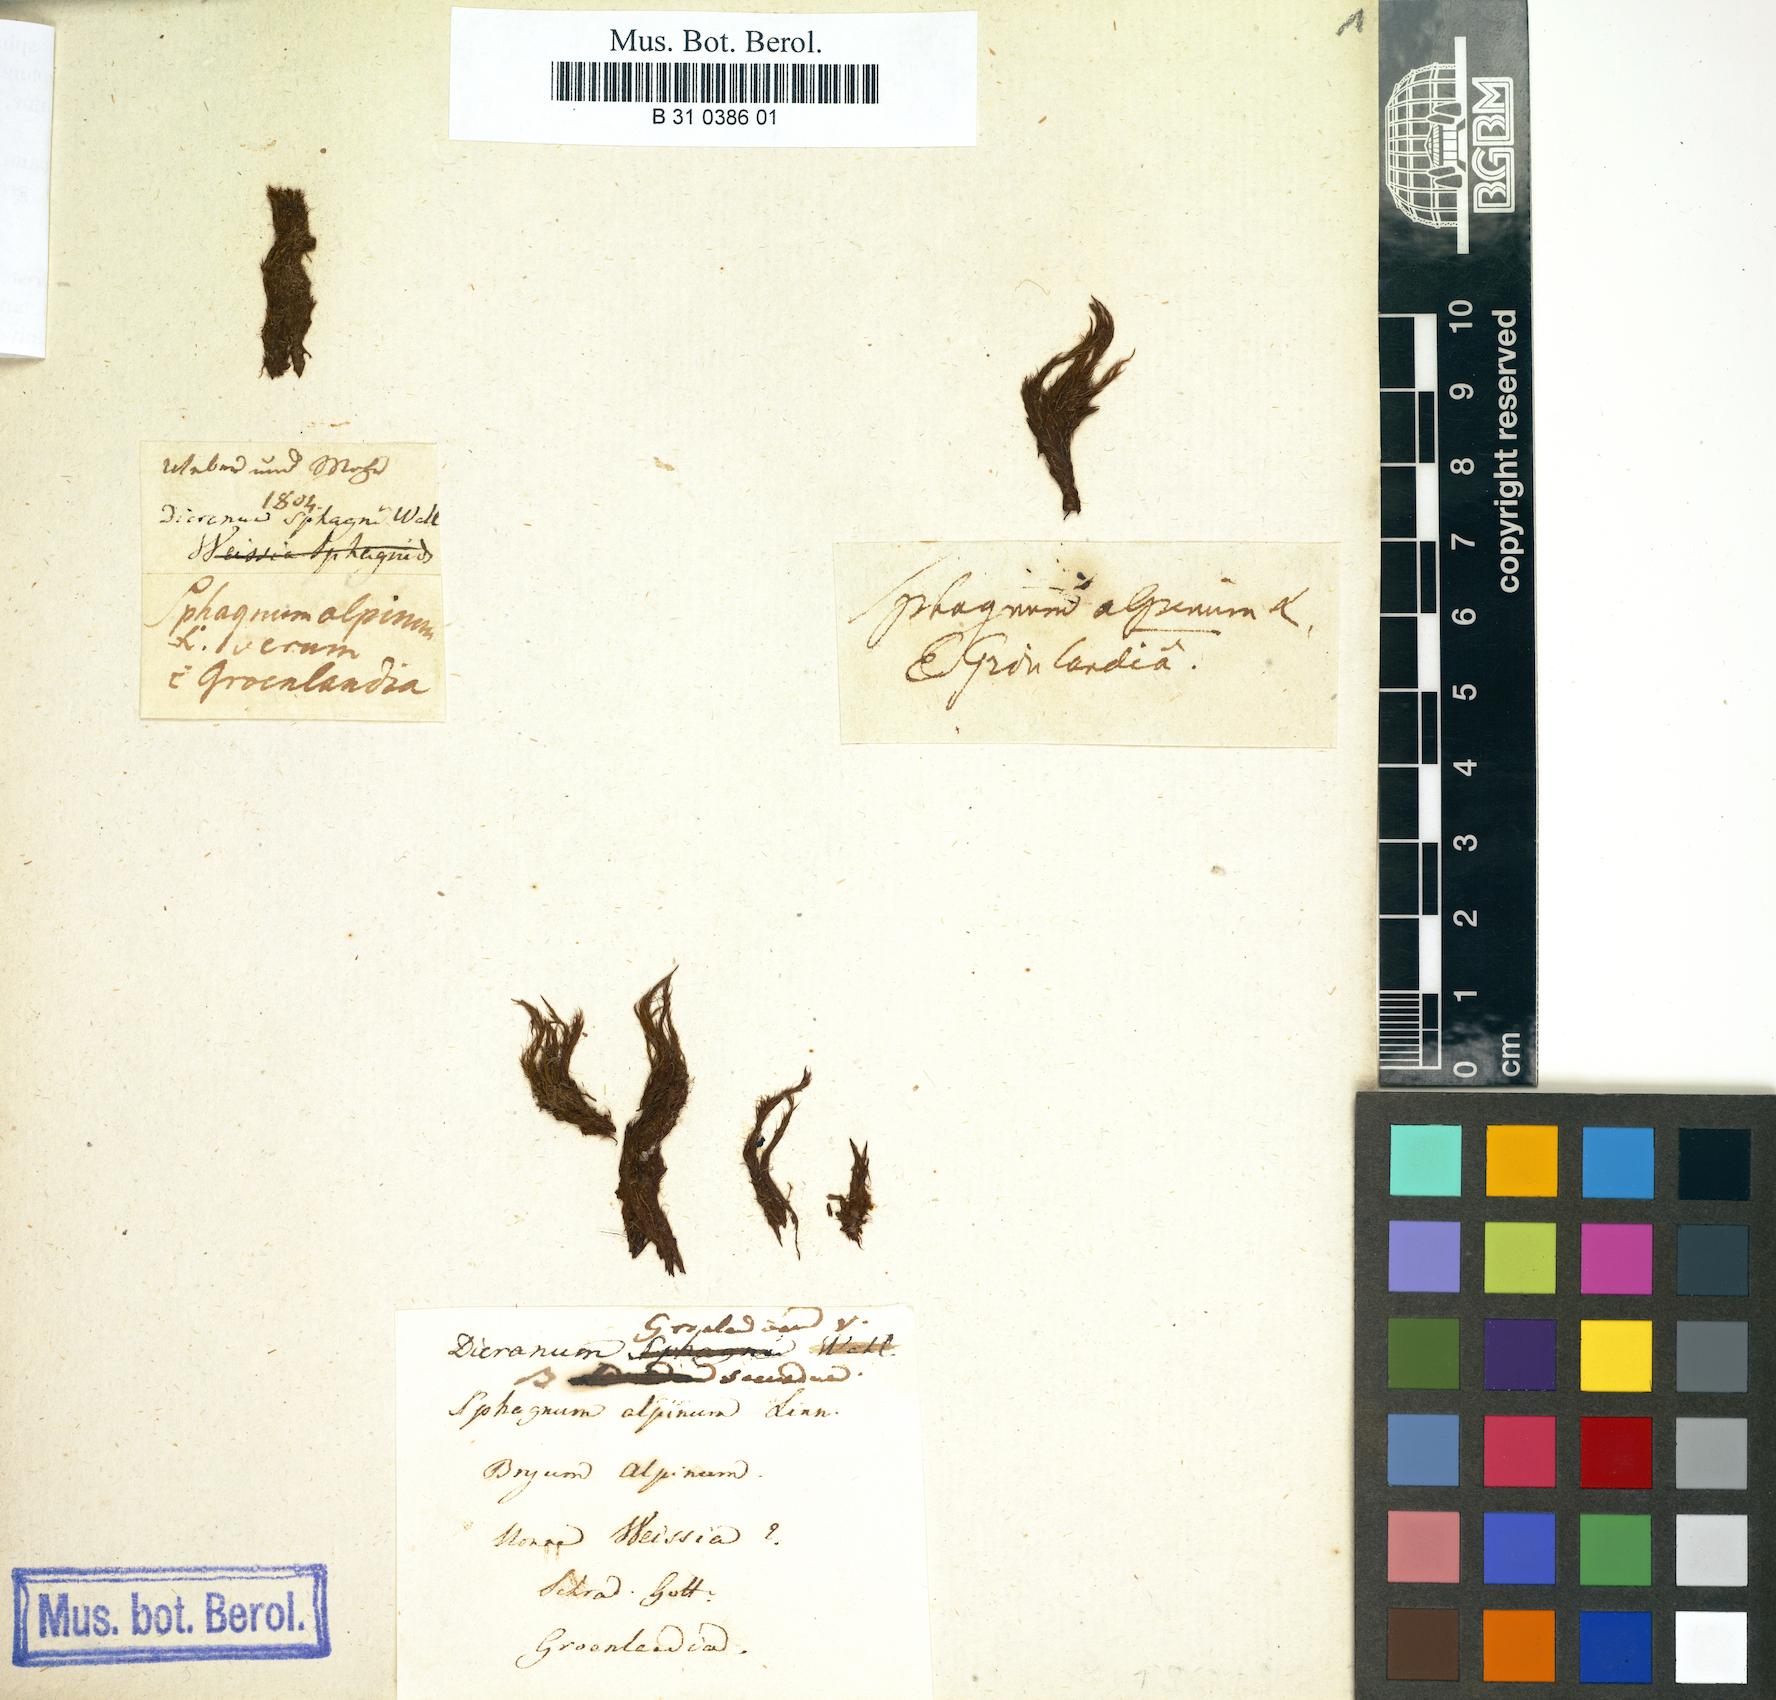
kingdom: Plantae
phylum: Bryophyta
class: Bryopsida
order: Dicranales
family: Dicranaceae
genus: Dicranum
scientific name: Dicranum groenlandicum
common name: Greenland broom moss
